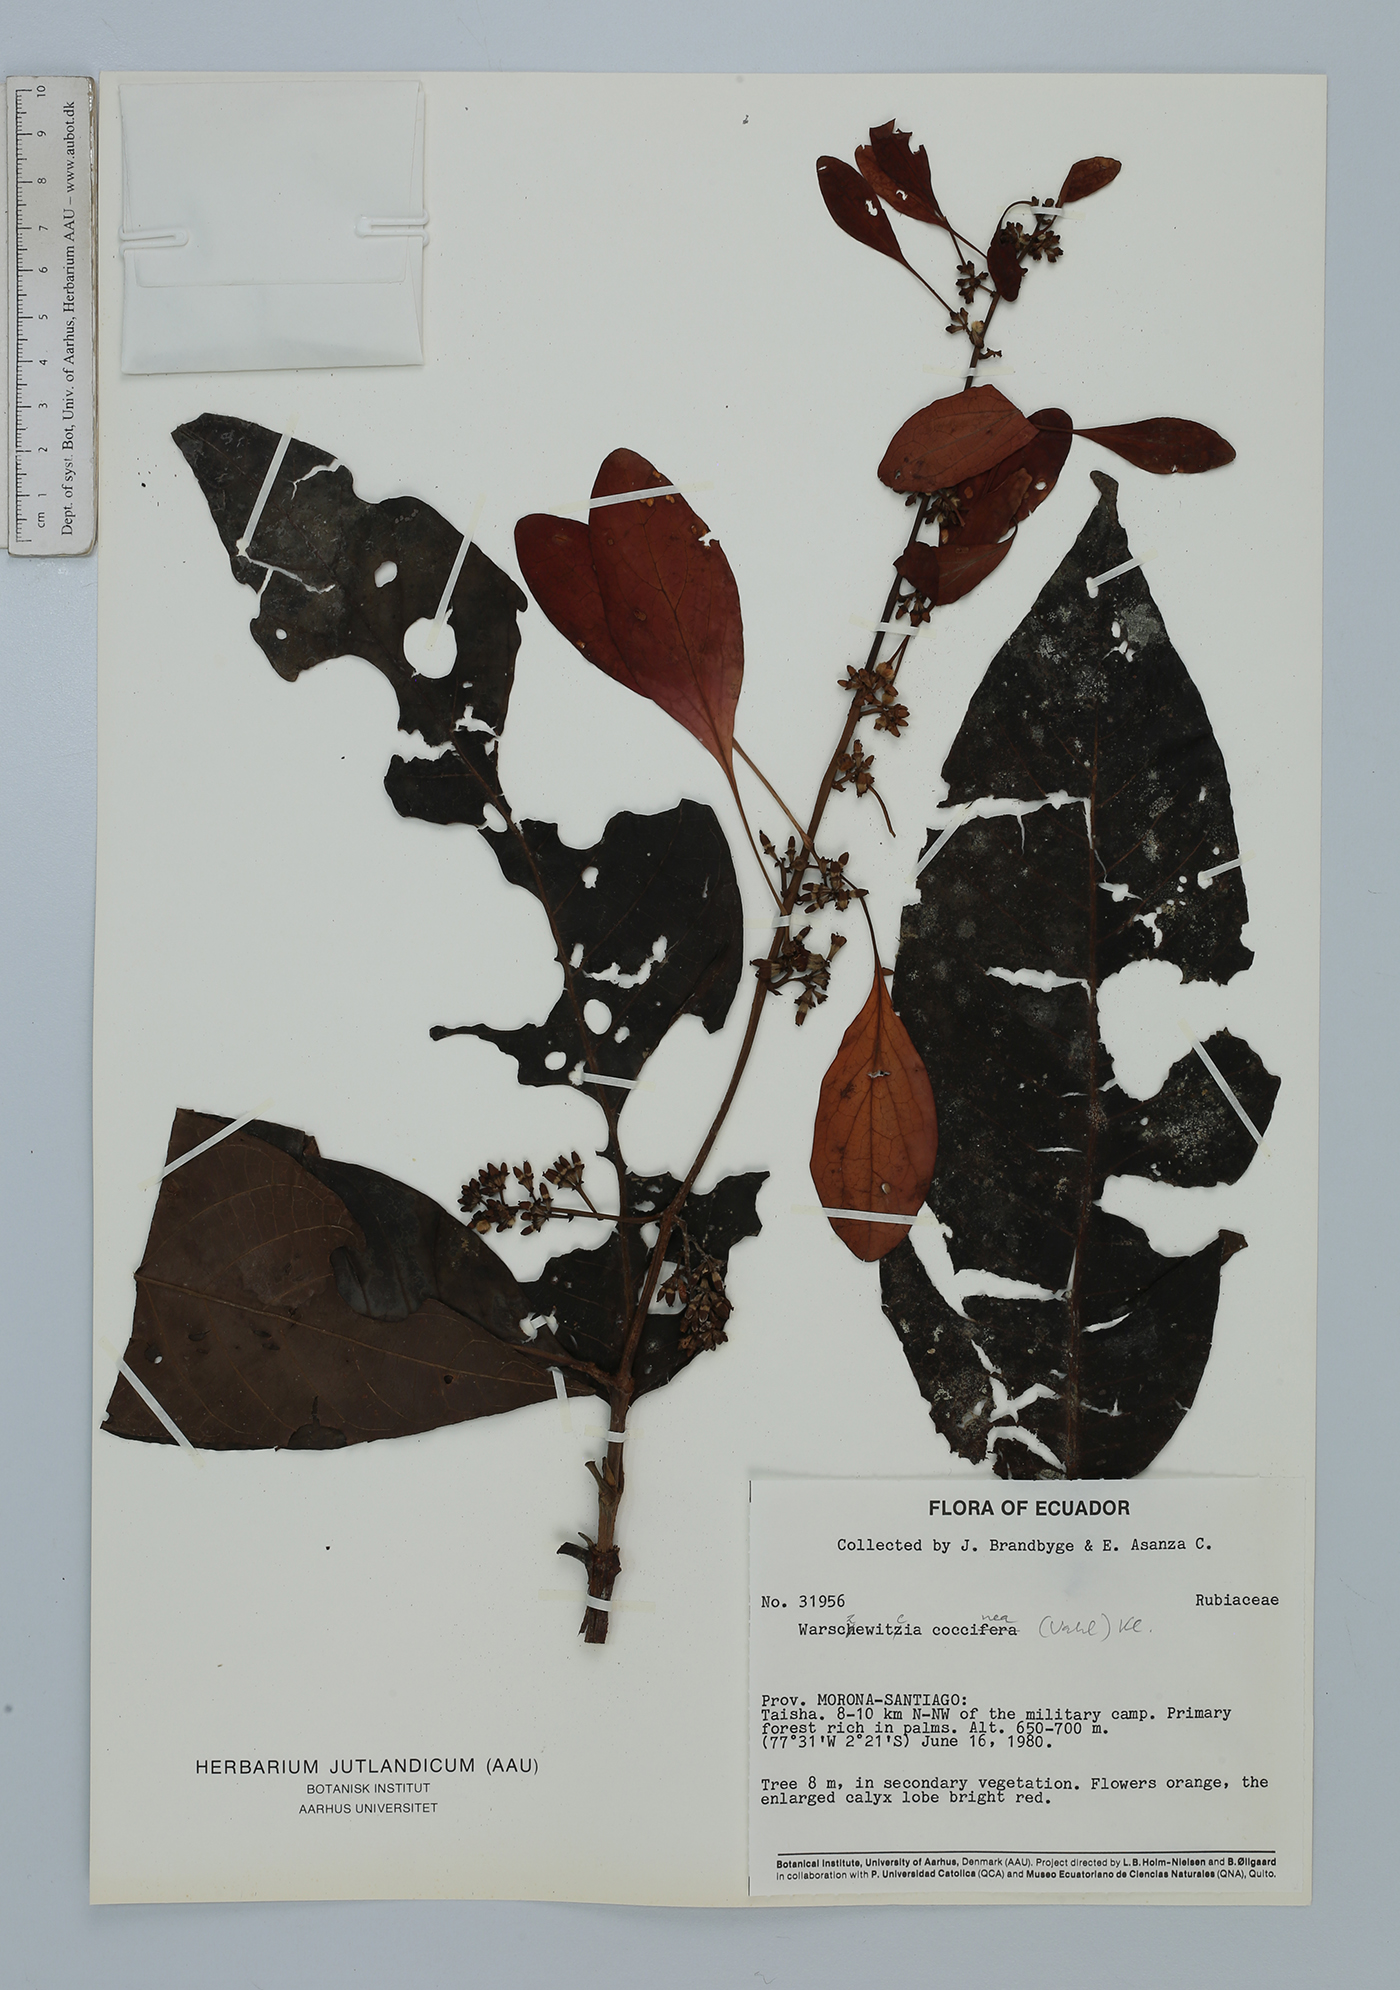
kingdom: Plantae
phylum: Tracheophyta
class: Magnoliopsida
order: Gentianales
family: Rubiaceae
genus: Warszewiczia
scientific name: Warszewiczia coccinea
